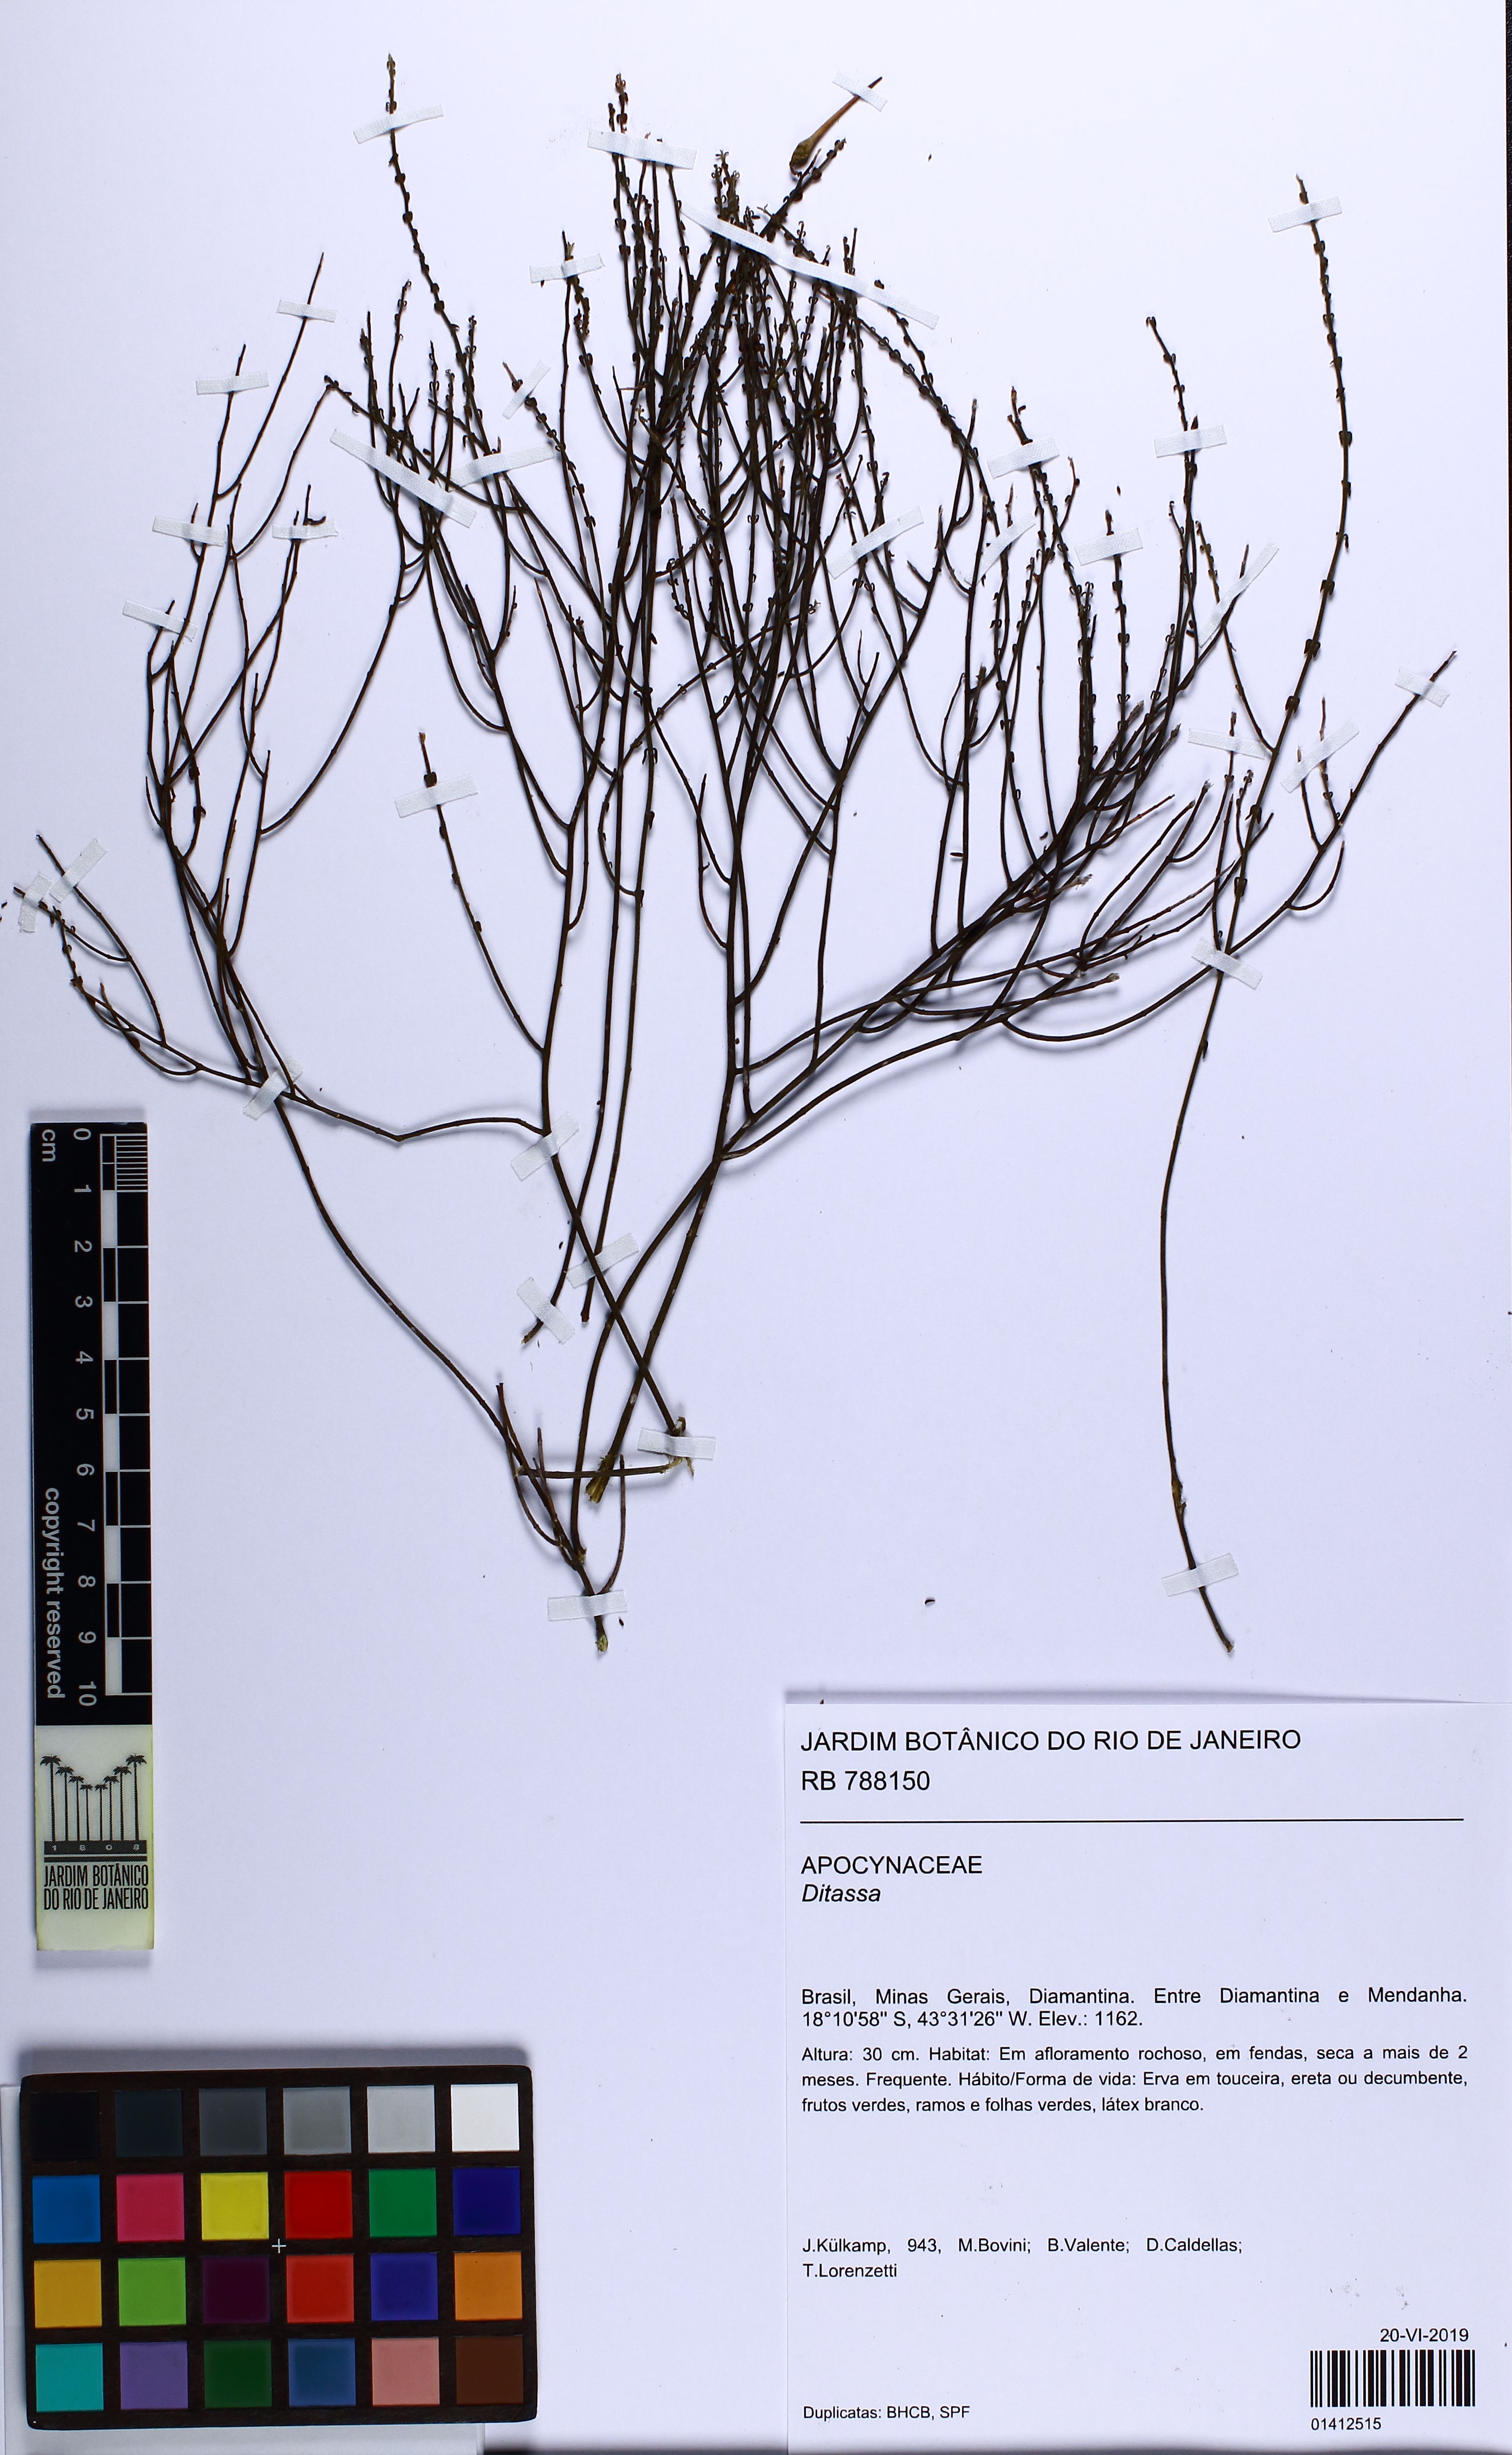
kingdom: Plantae
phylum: Tracheophyta
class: Magnoliopsida
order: Gentianales
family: Apocynaceae
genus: Ditassa
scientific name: Ditassa
